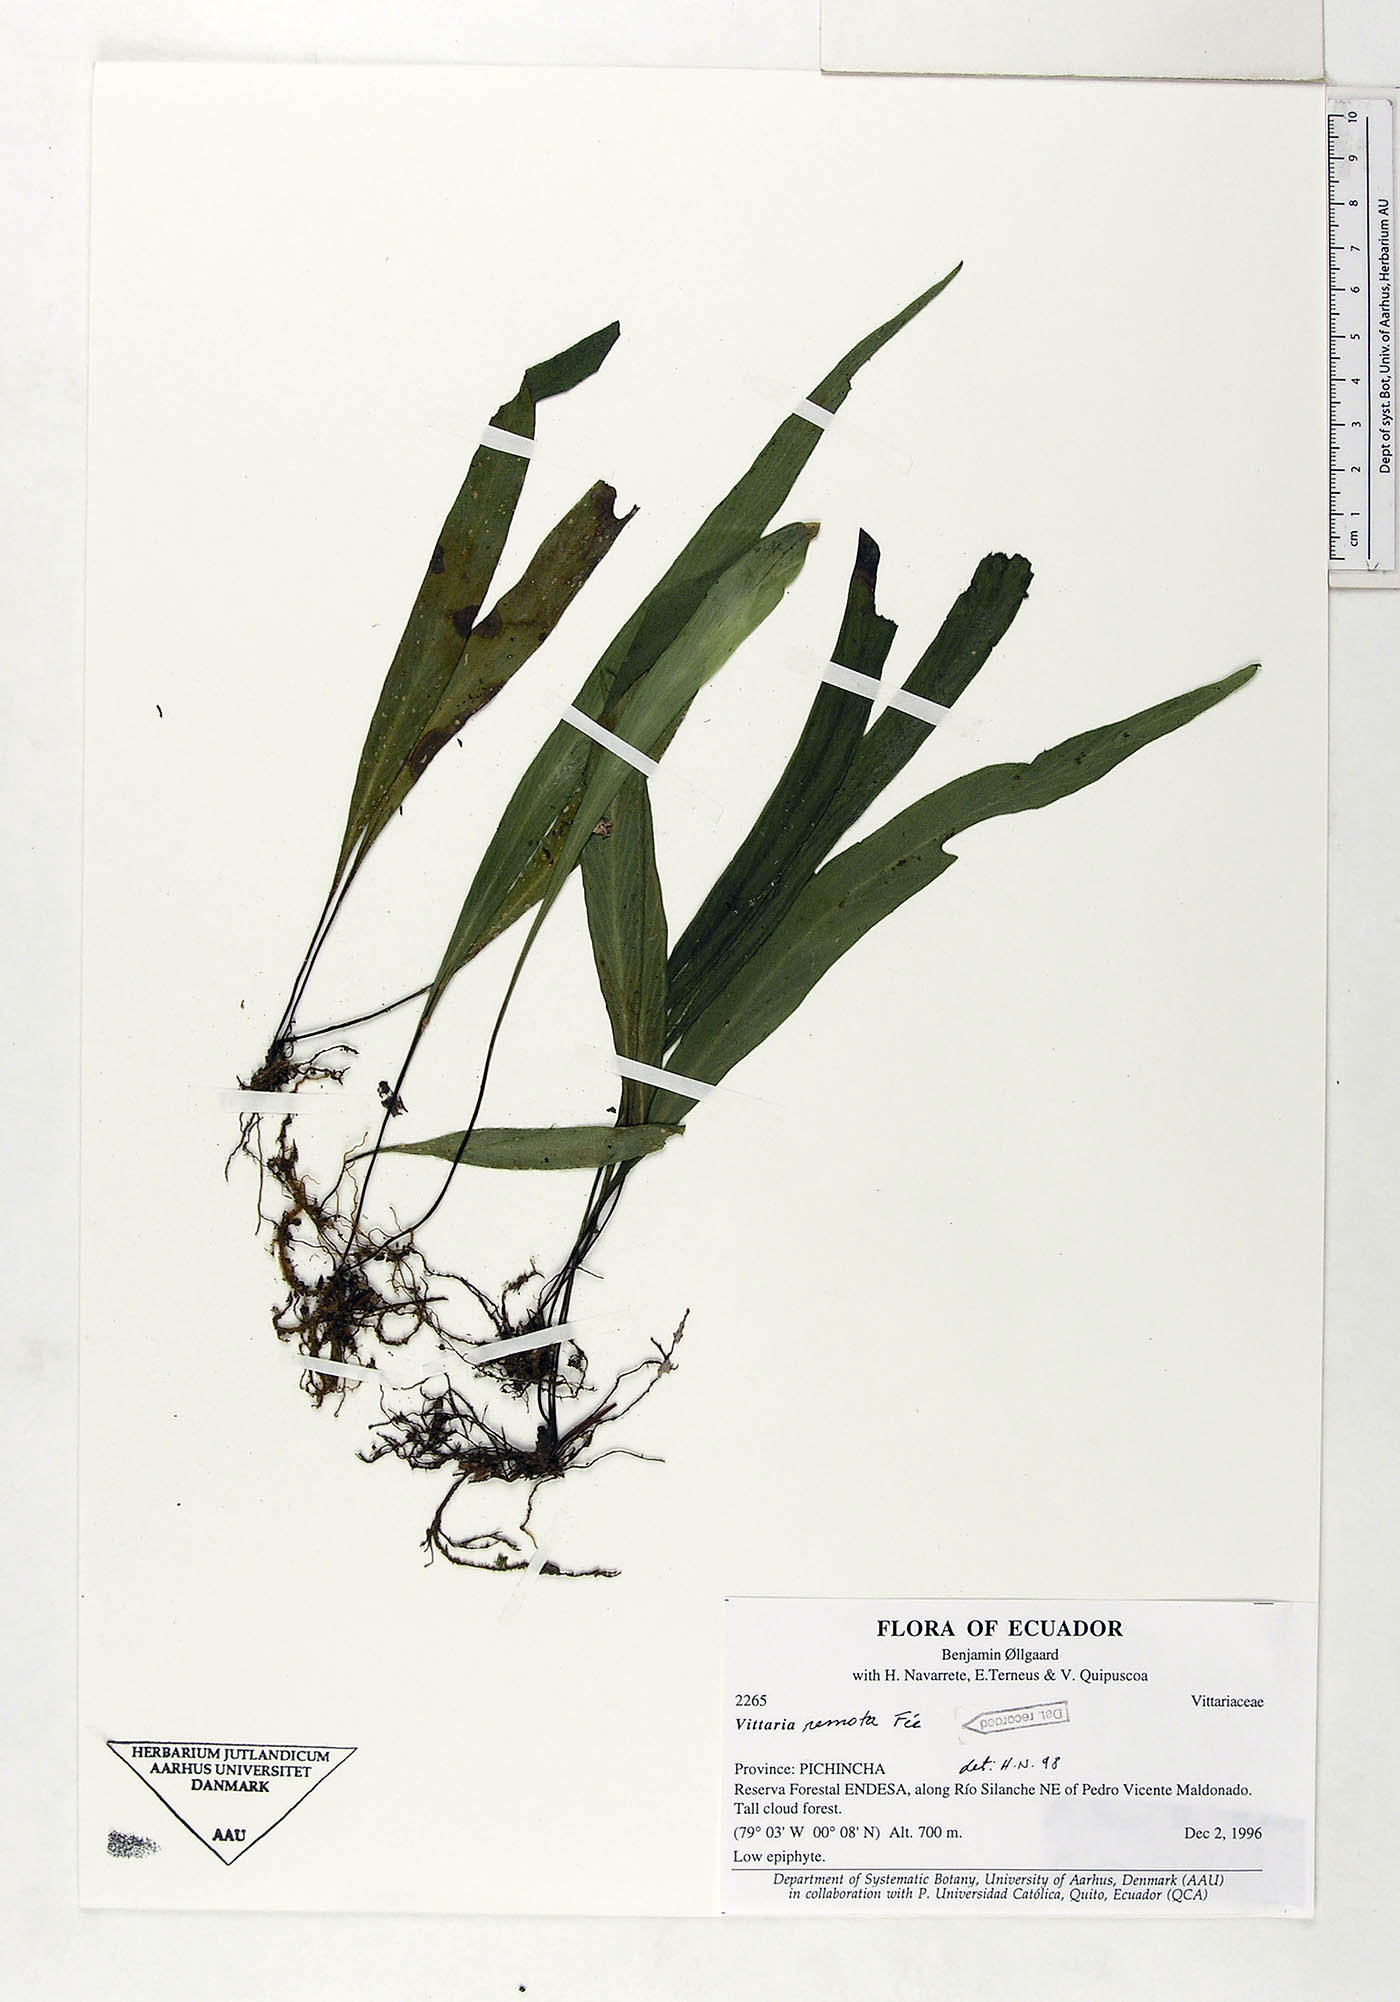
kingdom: Plantae
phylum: Tracheophyta
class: Polypodiopsida
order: Polypodiales
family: Pteridaceae
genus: Radiovittaria
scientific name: Radiovittaria remota
